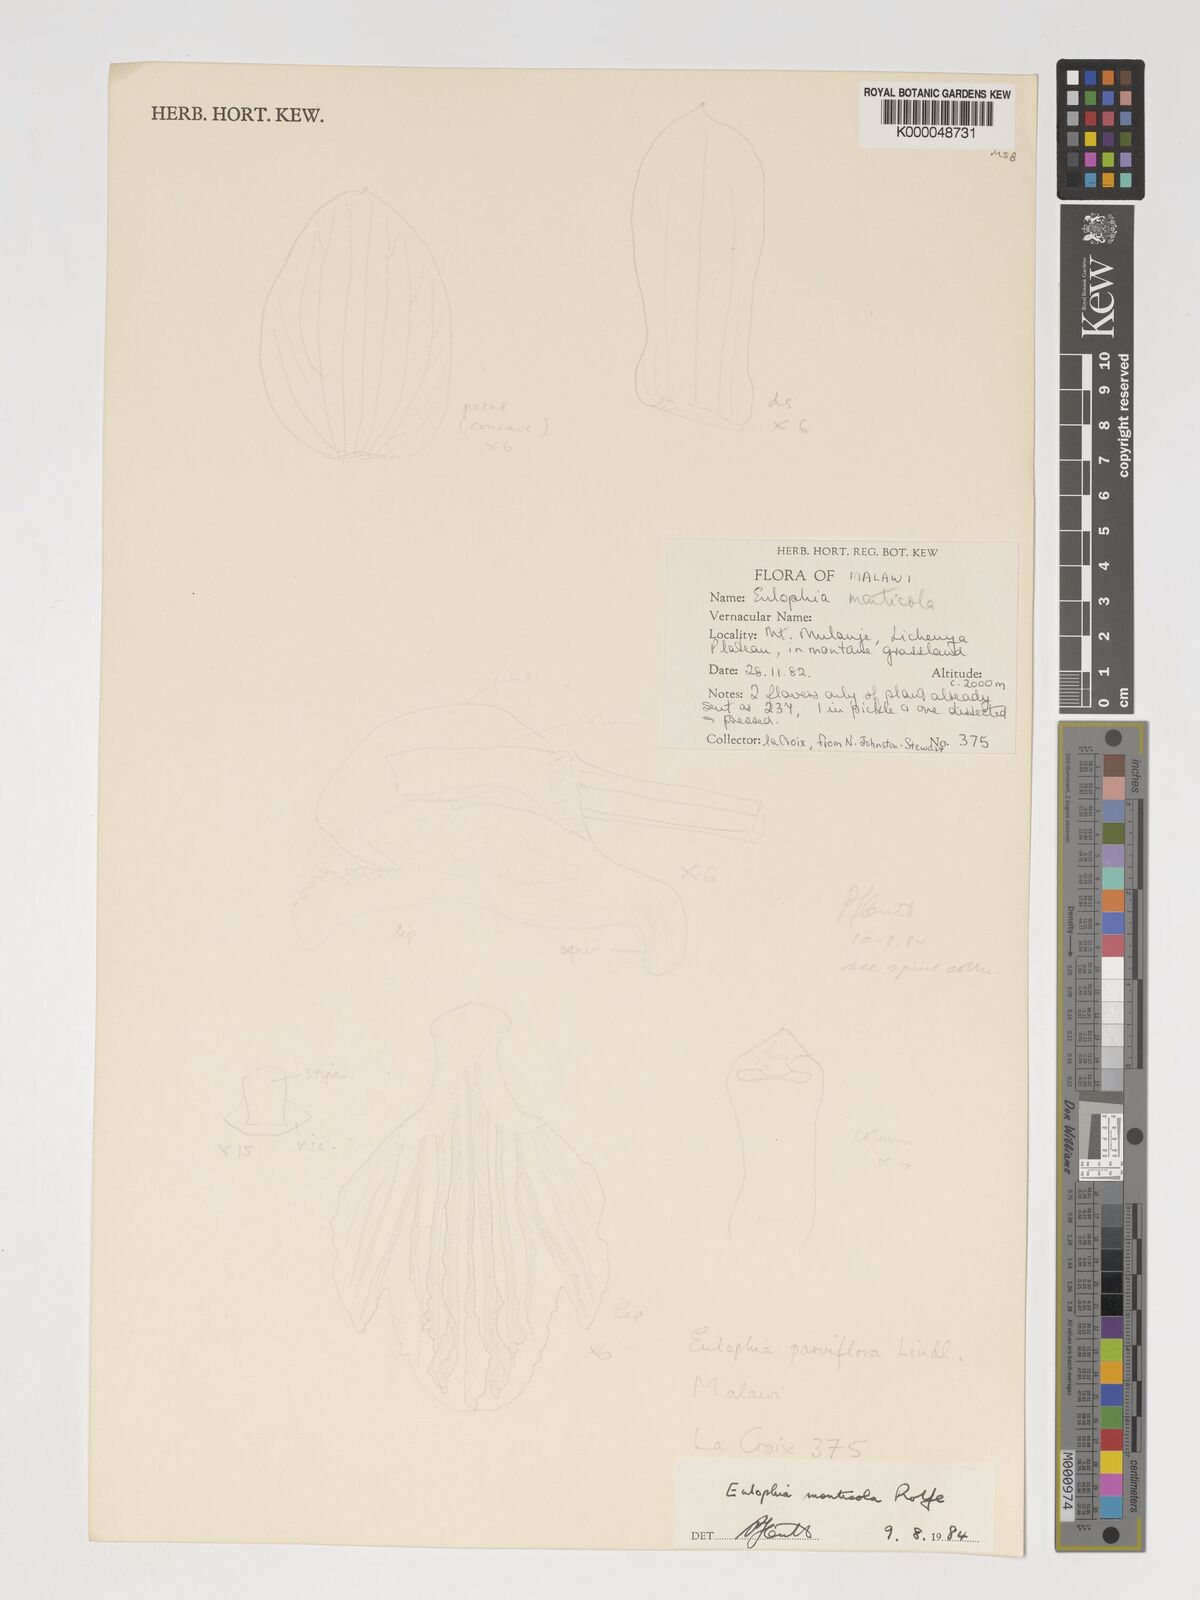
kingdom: Plantae
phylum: Tracheophyta
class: Liliopsida
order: Asparagales
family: Orchidaceae
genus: Eulophia
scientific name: Eulophia monticola
